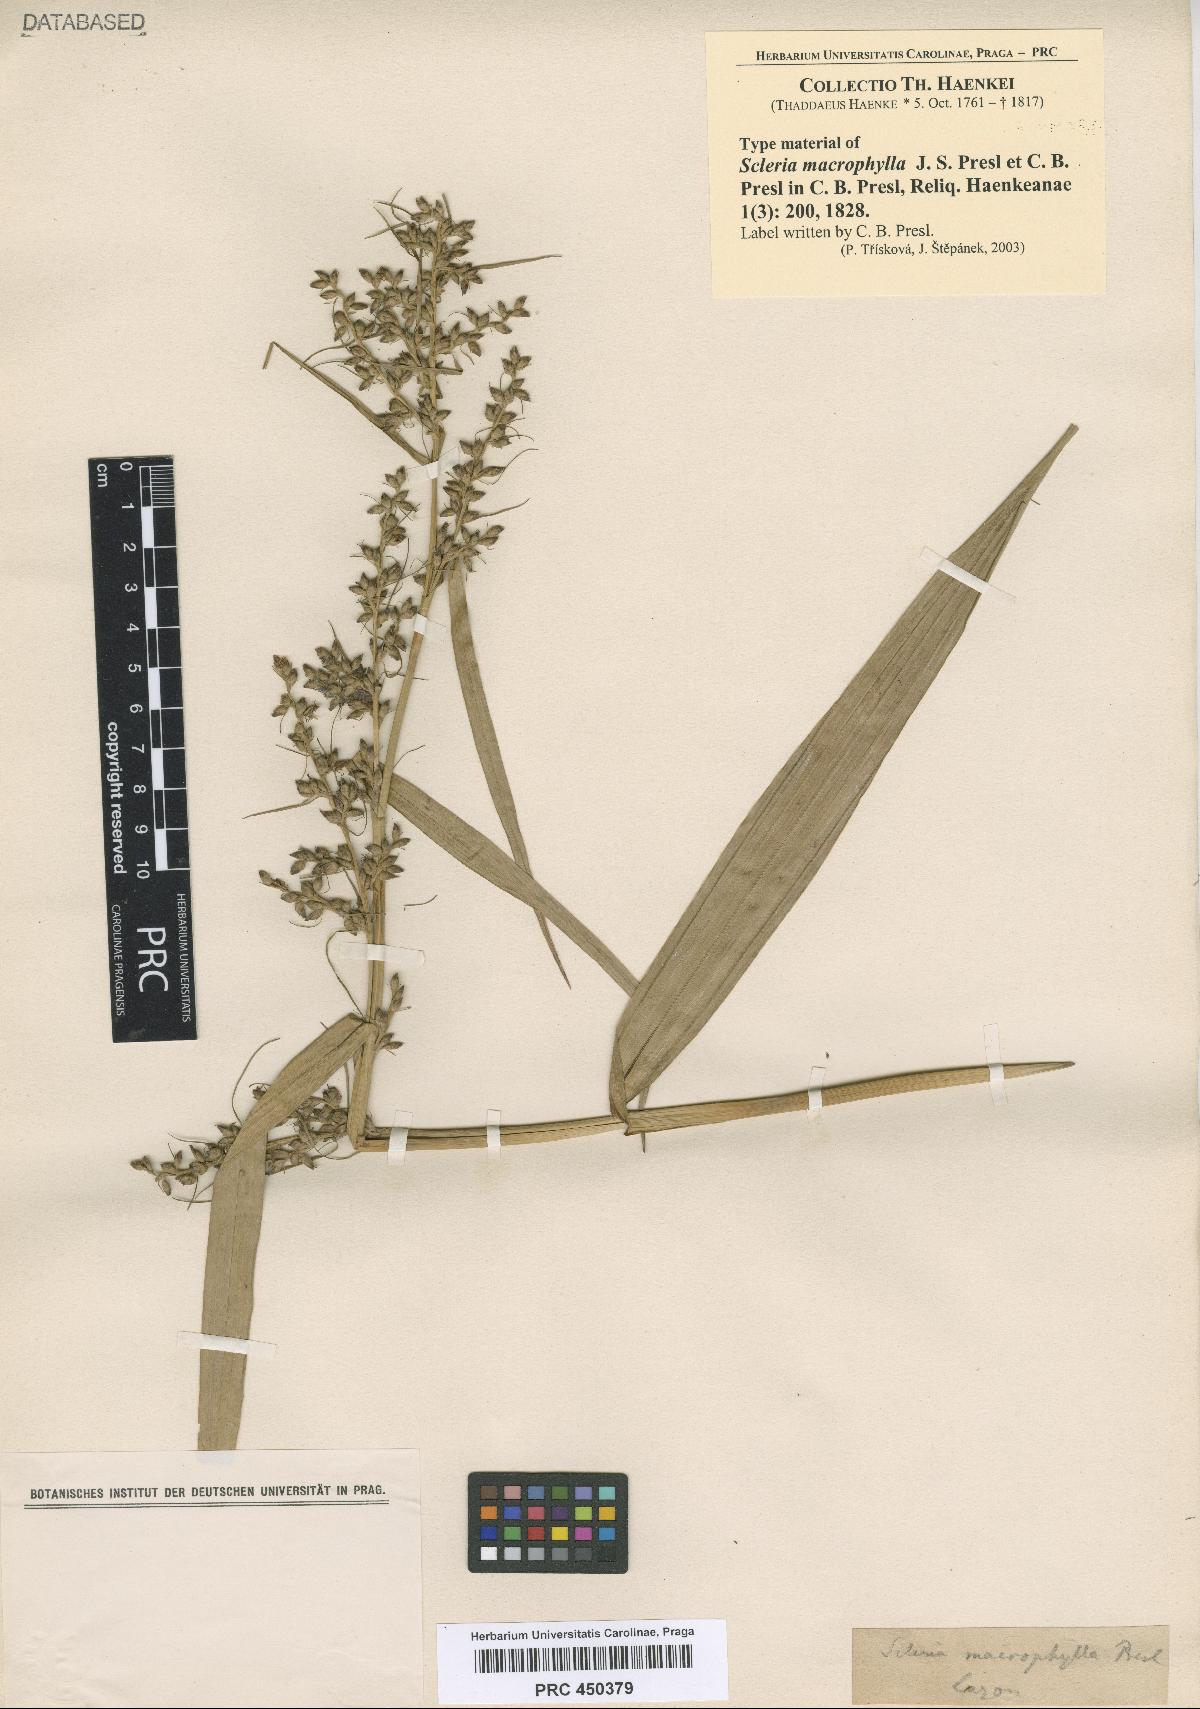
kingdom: Plantae
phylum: Tracheophyta
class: Liliopsida
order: Poales
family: Cyperaceae
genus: Scleria
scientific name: Scleria macrophylla
